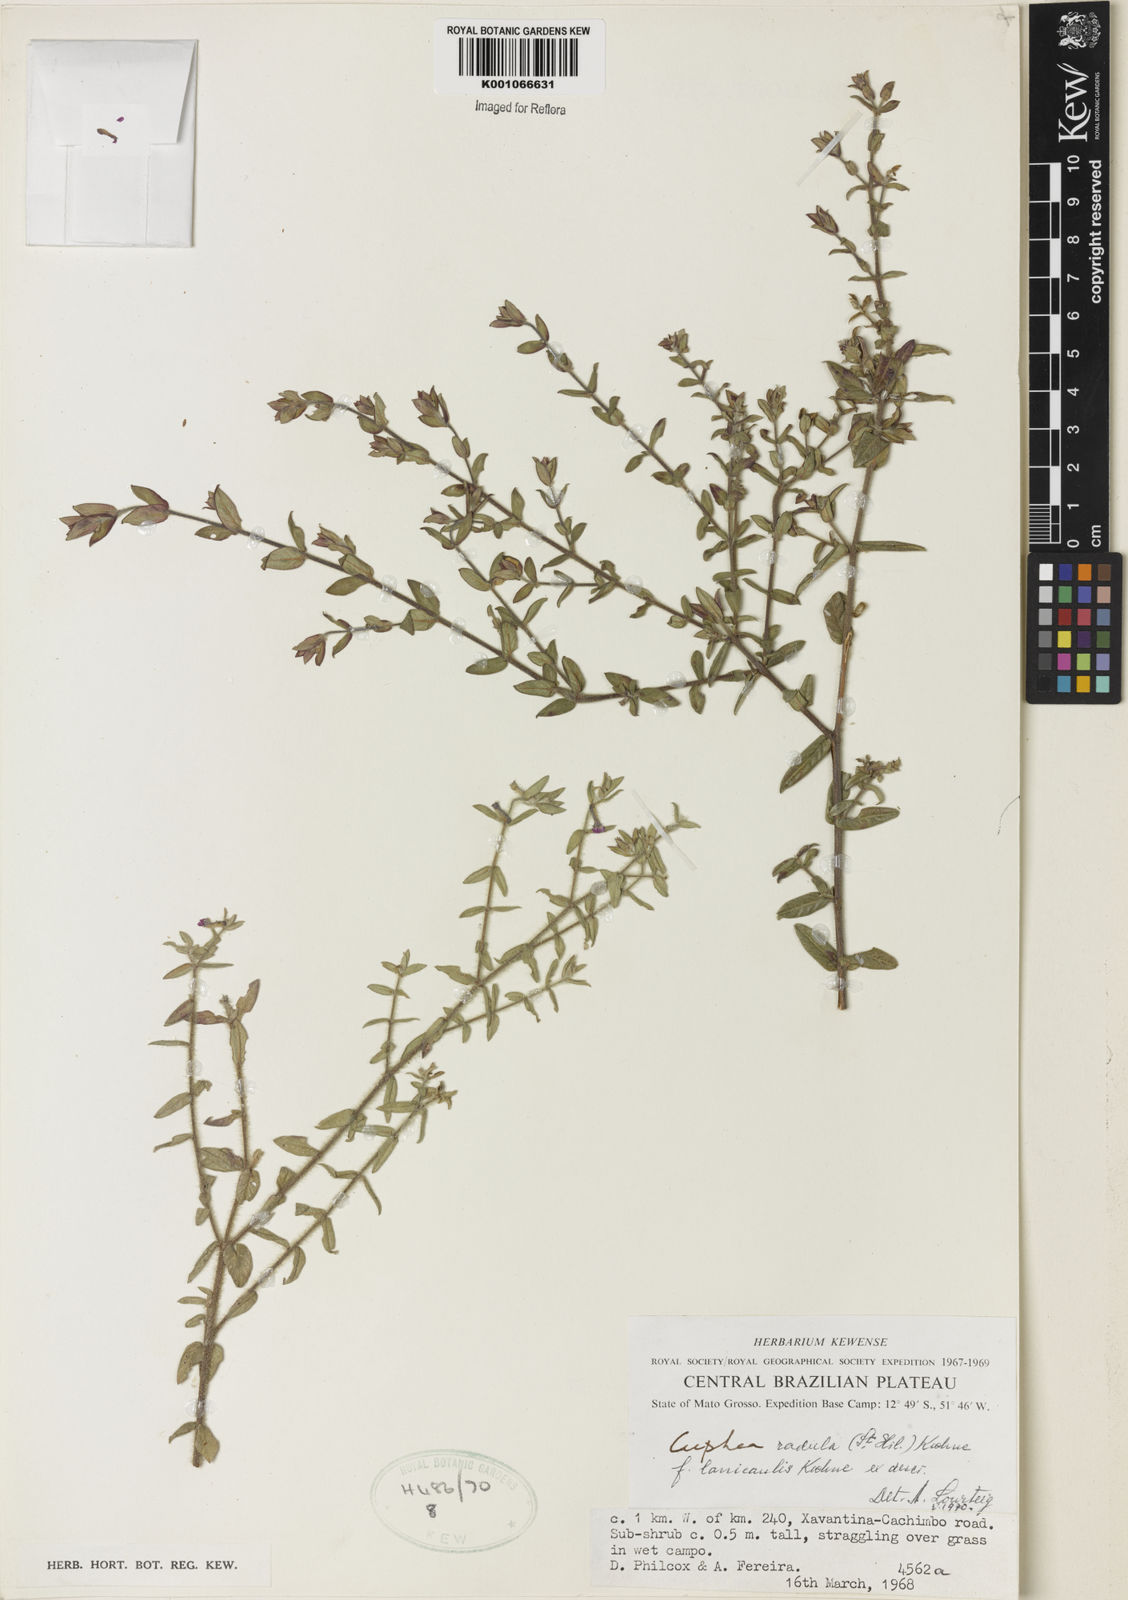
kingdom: Plantae
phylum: Tracheophyta
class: Magnoliopsida
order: Myrtales
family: Lythraceae
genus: Cuphea
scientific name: Cuphea antisyphilitica
